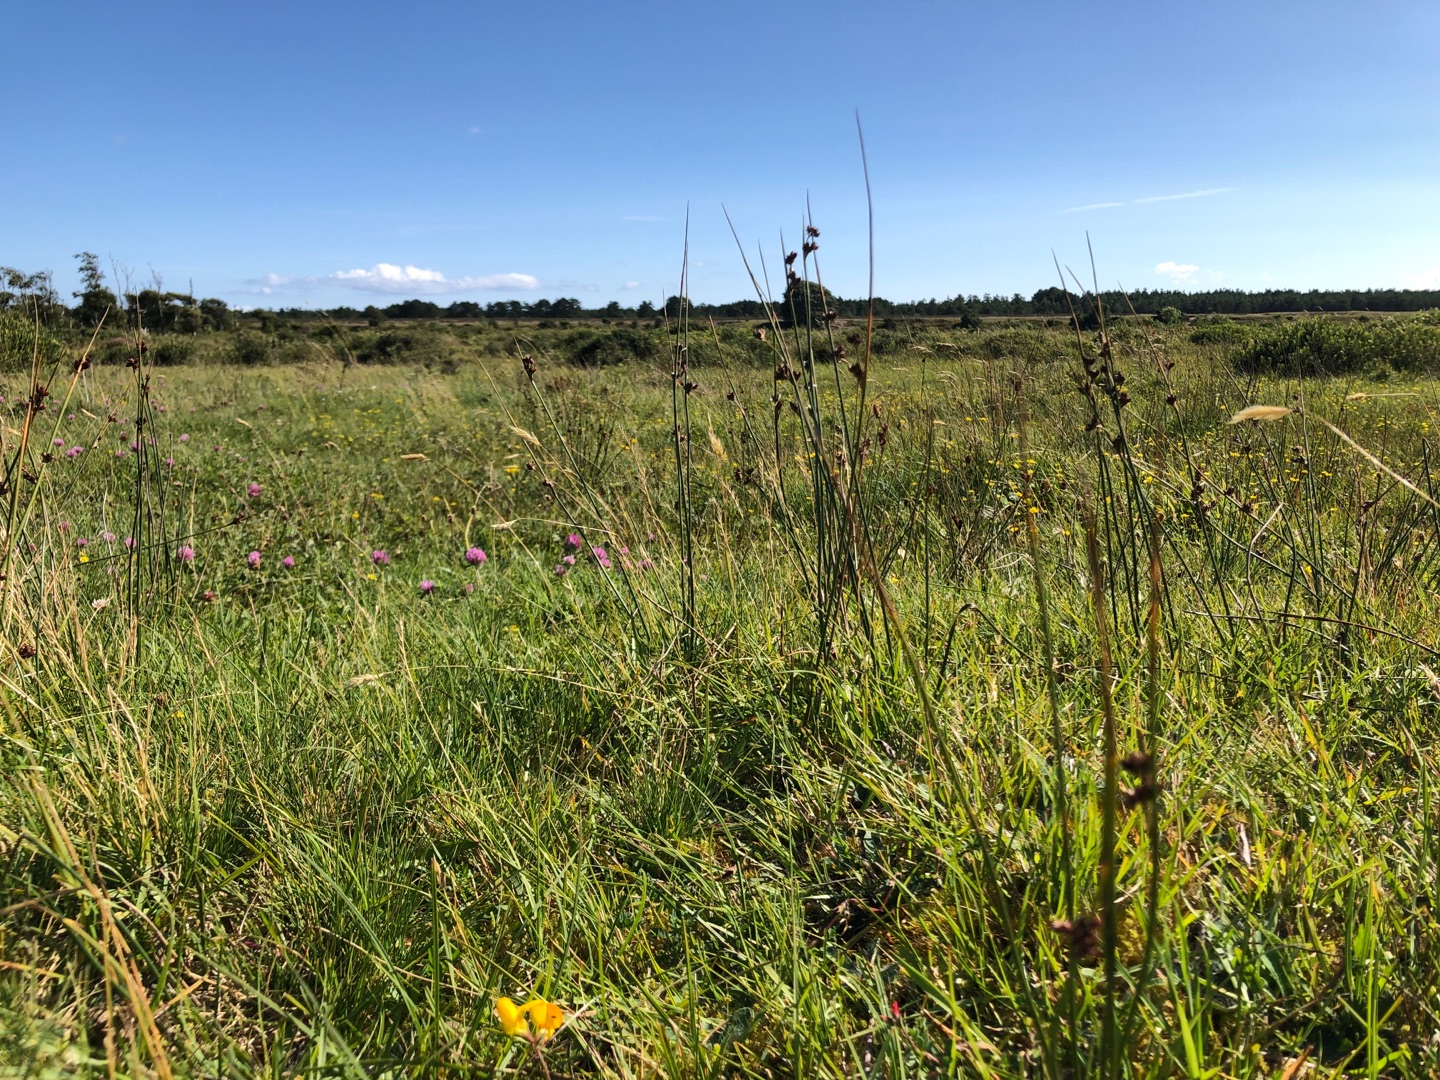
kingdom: Plantae
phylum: Tracheophyta
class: Liliopsida
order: Poales
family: Juncaceae
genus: Juncus
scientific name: Juncus balticus
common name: Klit-siv
